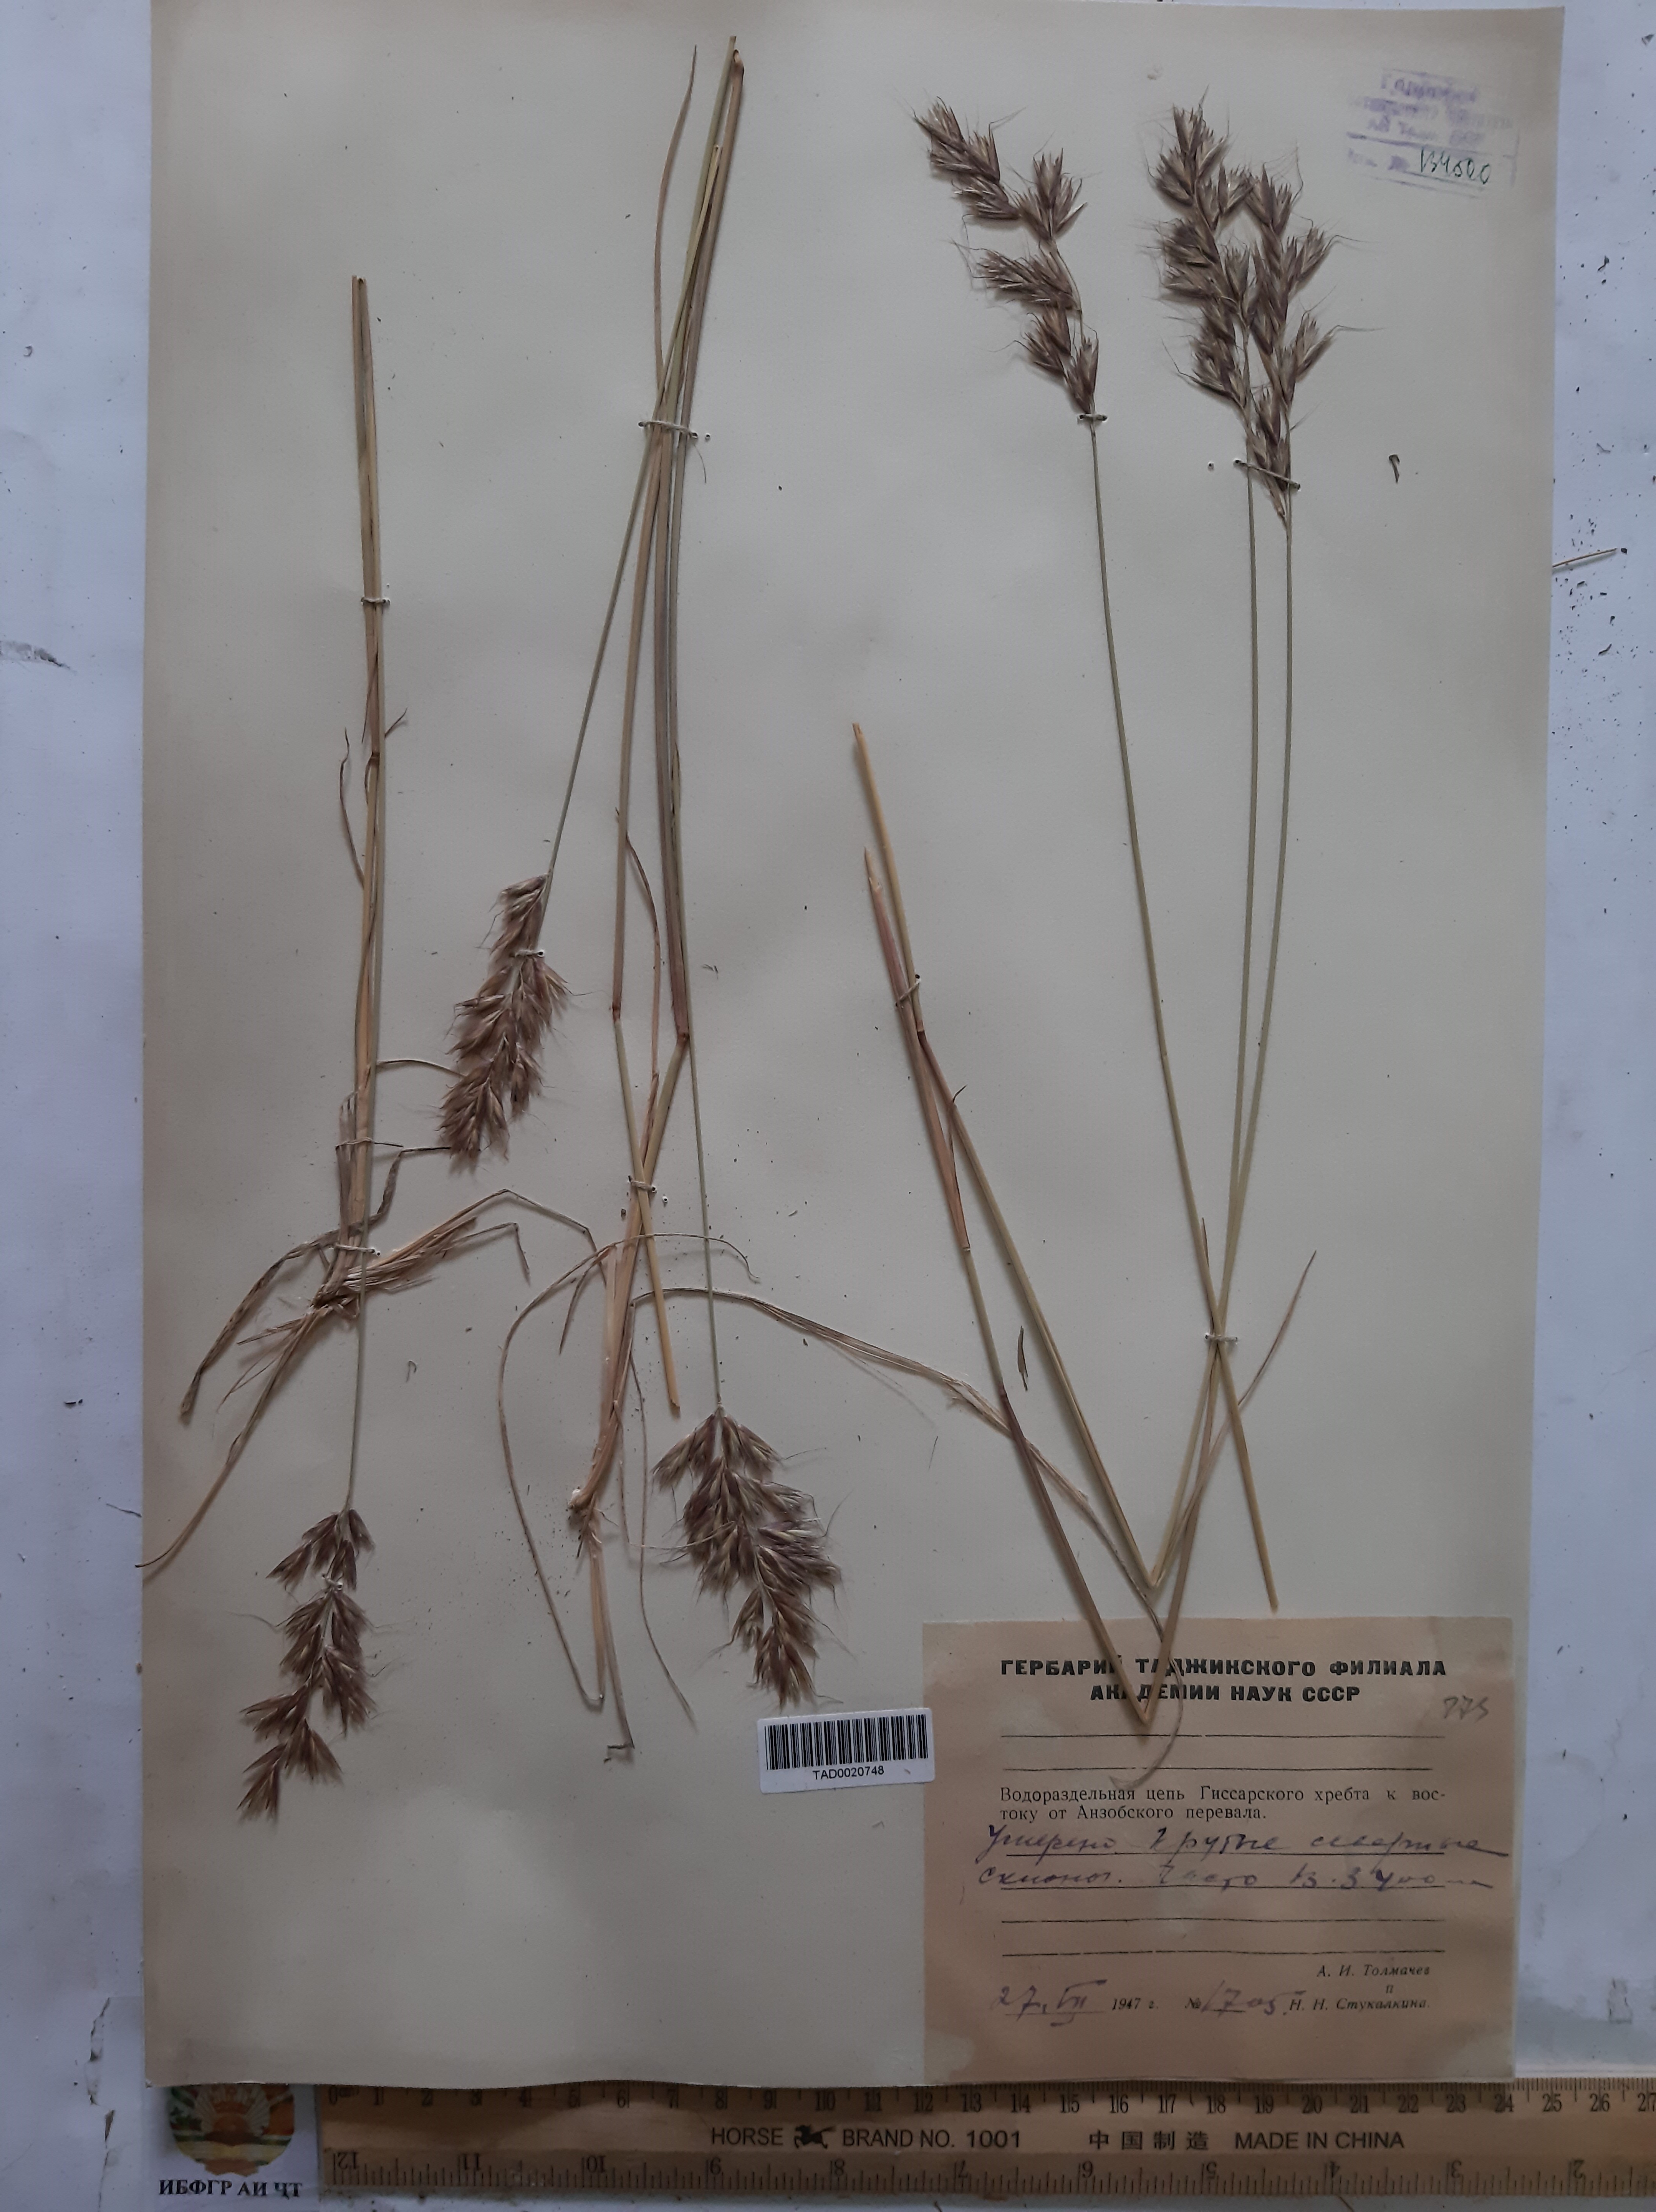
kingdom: Plantae
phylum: Tracheophyta
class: Liliopsida
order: Poales
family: Poaceae
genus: Helictotrichon
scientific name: Helictotrichon hissaricum
